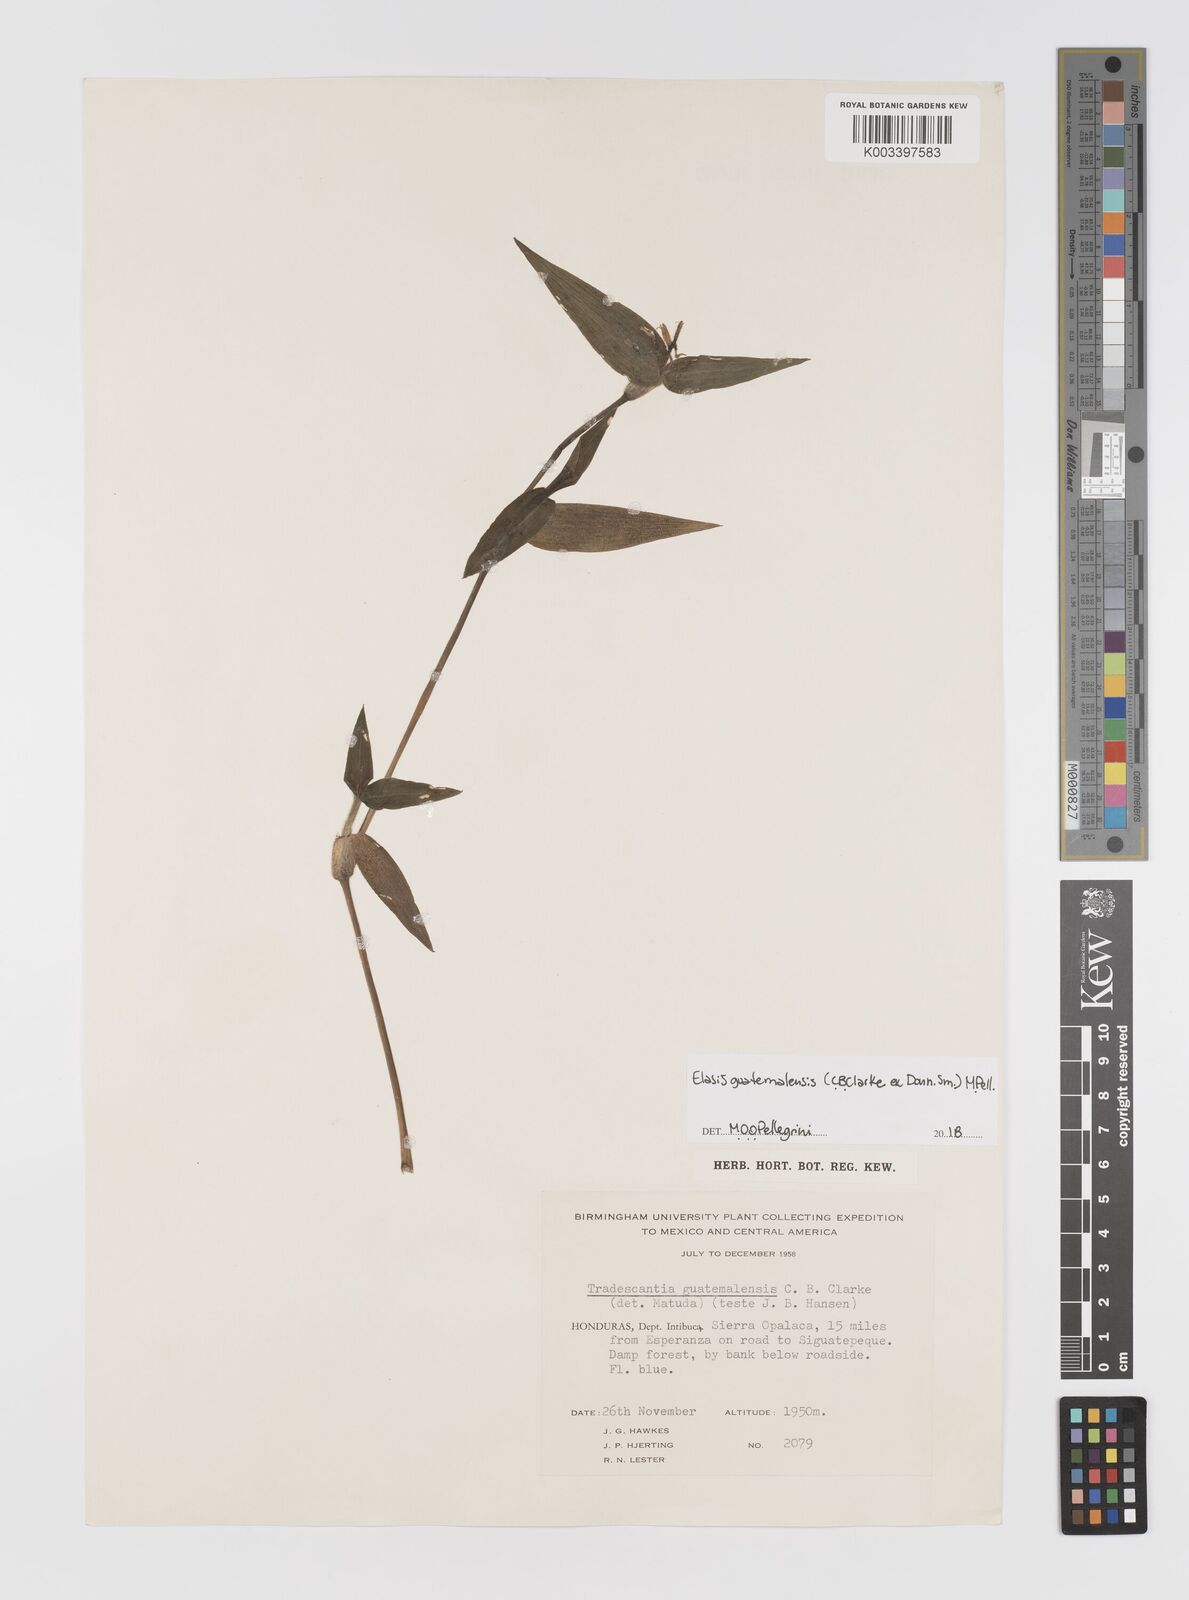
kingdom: Plantae
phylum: Tracheophyta
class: Liliopsida
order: Commelinales
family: Commelinaceae
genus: Elasis
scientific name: Elasis guatemalensis
